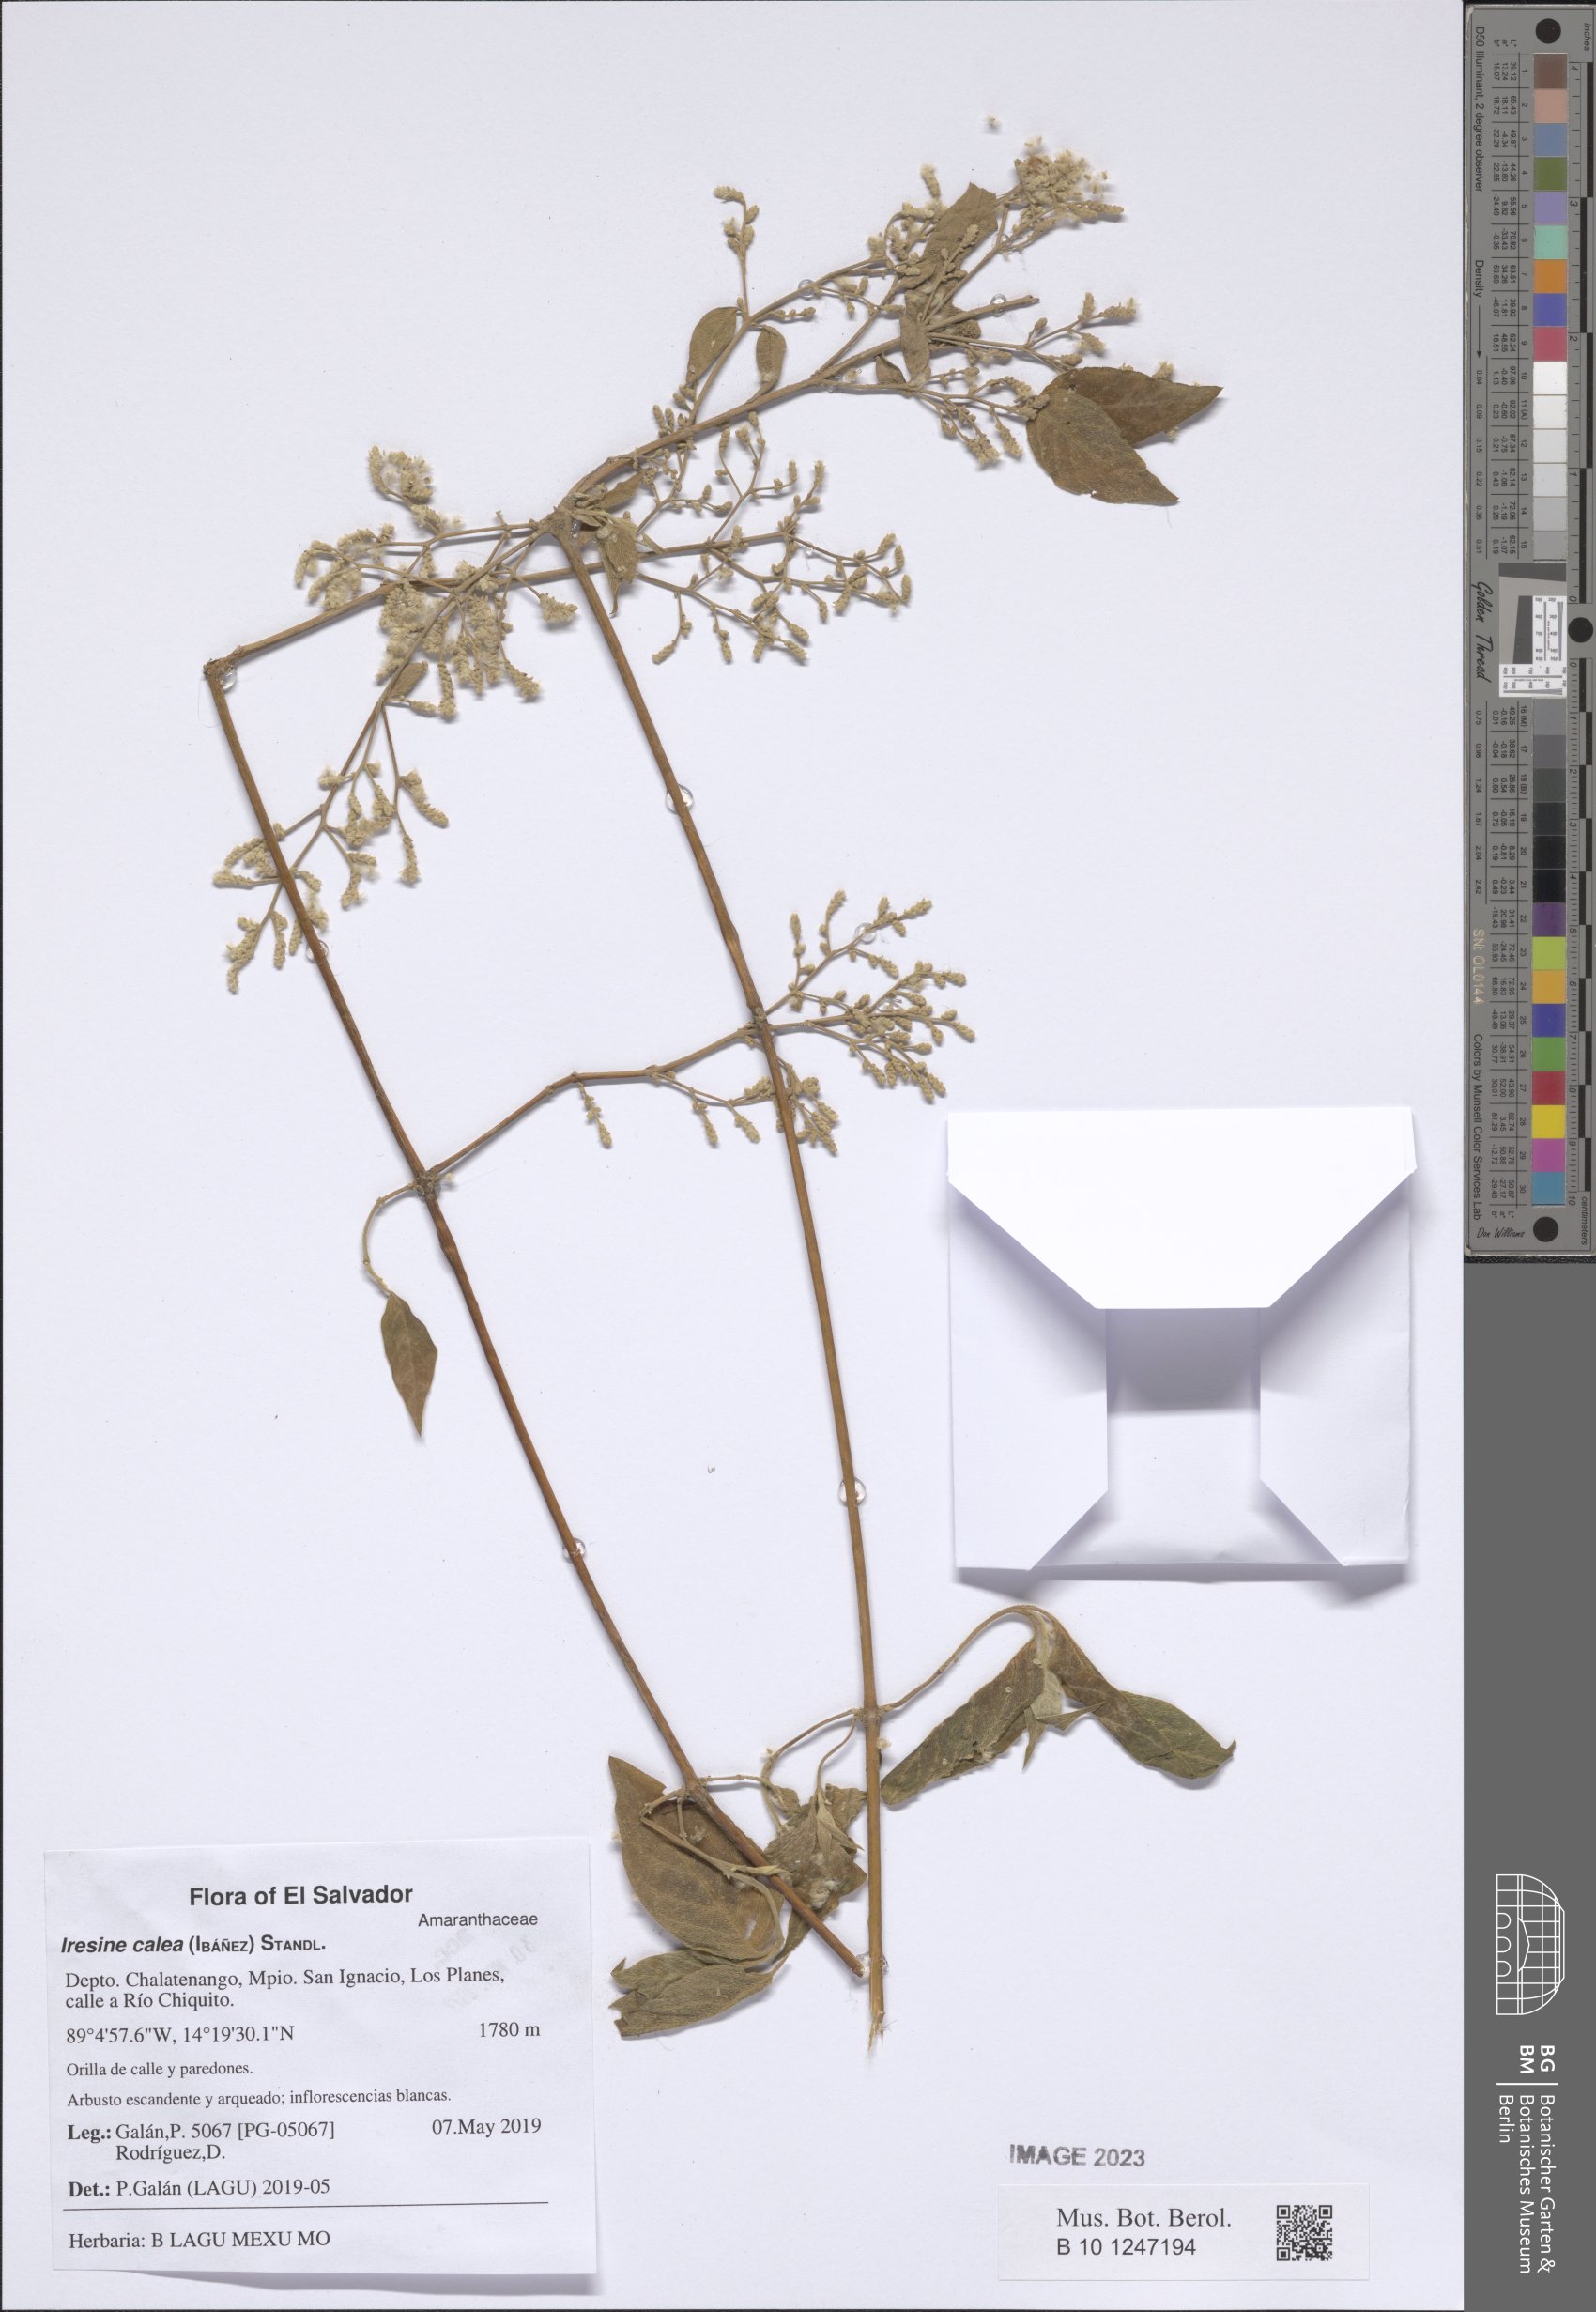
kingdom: Plantae
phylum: Tracheophyta
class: Magnoliopsida
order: Caryophyllales
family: Amaranthaceae
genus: Iresine
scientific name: Iresine latifolia
